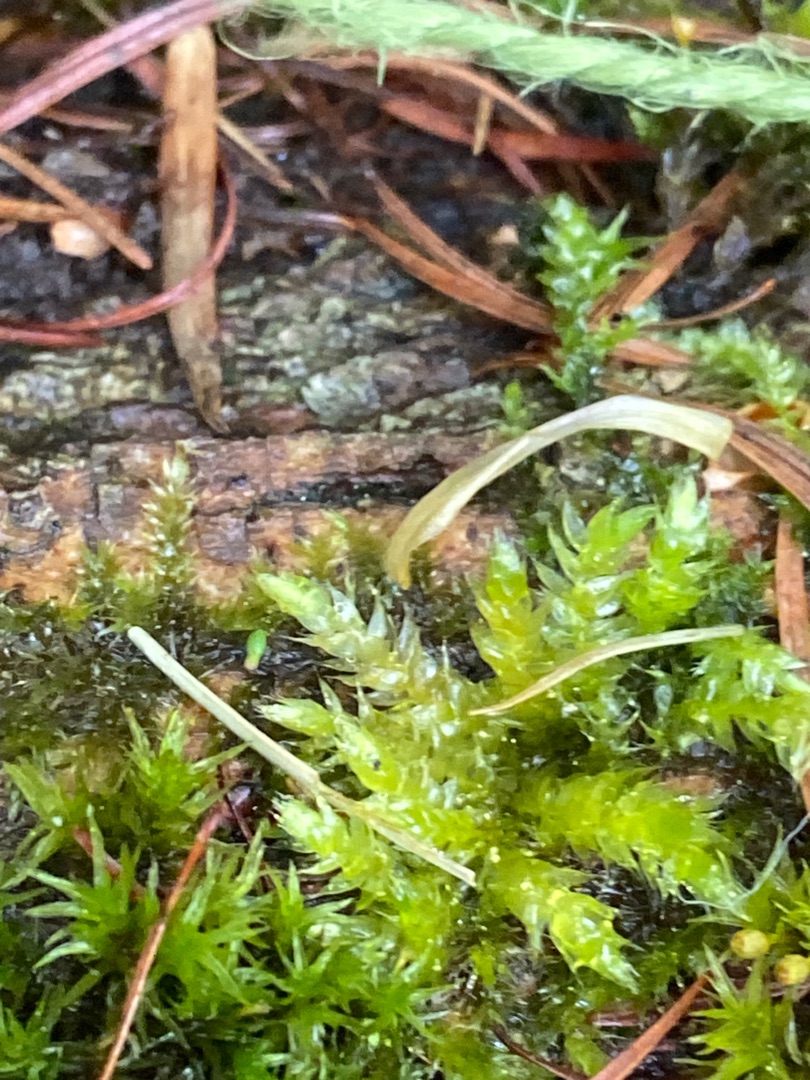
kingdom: Plantae
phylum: Bryophyta
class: Bryopsida
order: Hypnales
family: Brachytheciaceae
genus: Brachythecium
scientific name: Brachythecium rutabulum
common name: Almindelig kortkapsel
